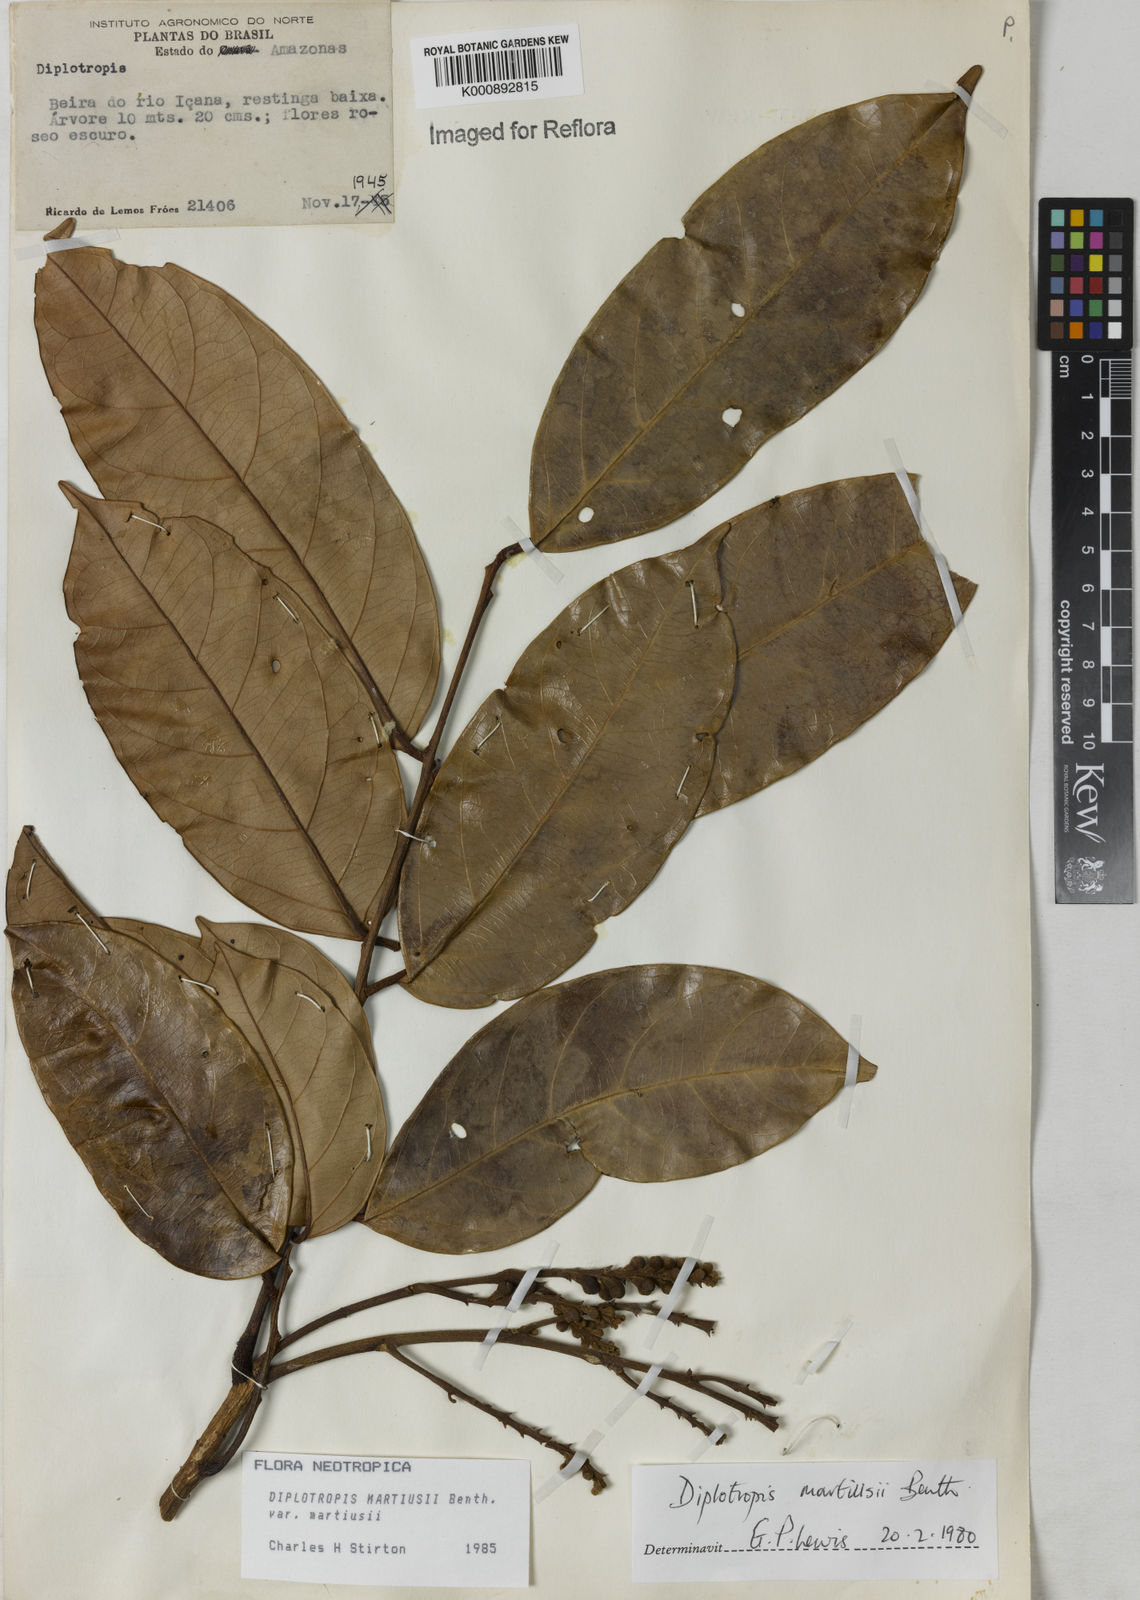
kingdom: Plantae
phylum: Tracheophyta
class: Magnoliopsida
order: Fabales
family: Fabaceae
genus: Diplotropis
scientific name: Diplotropis
